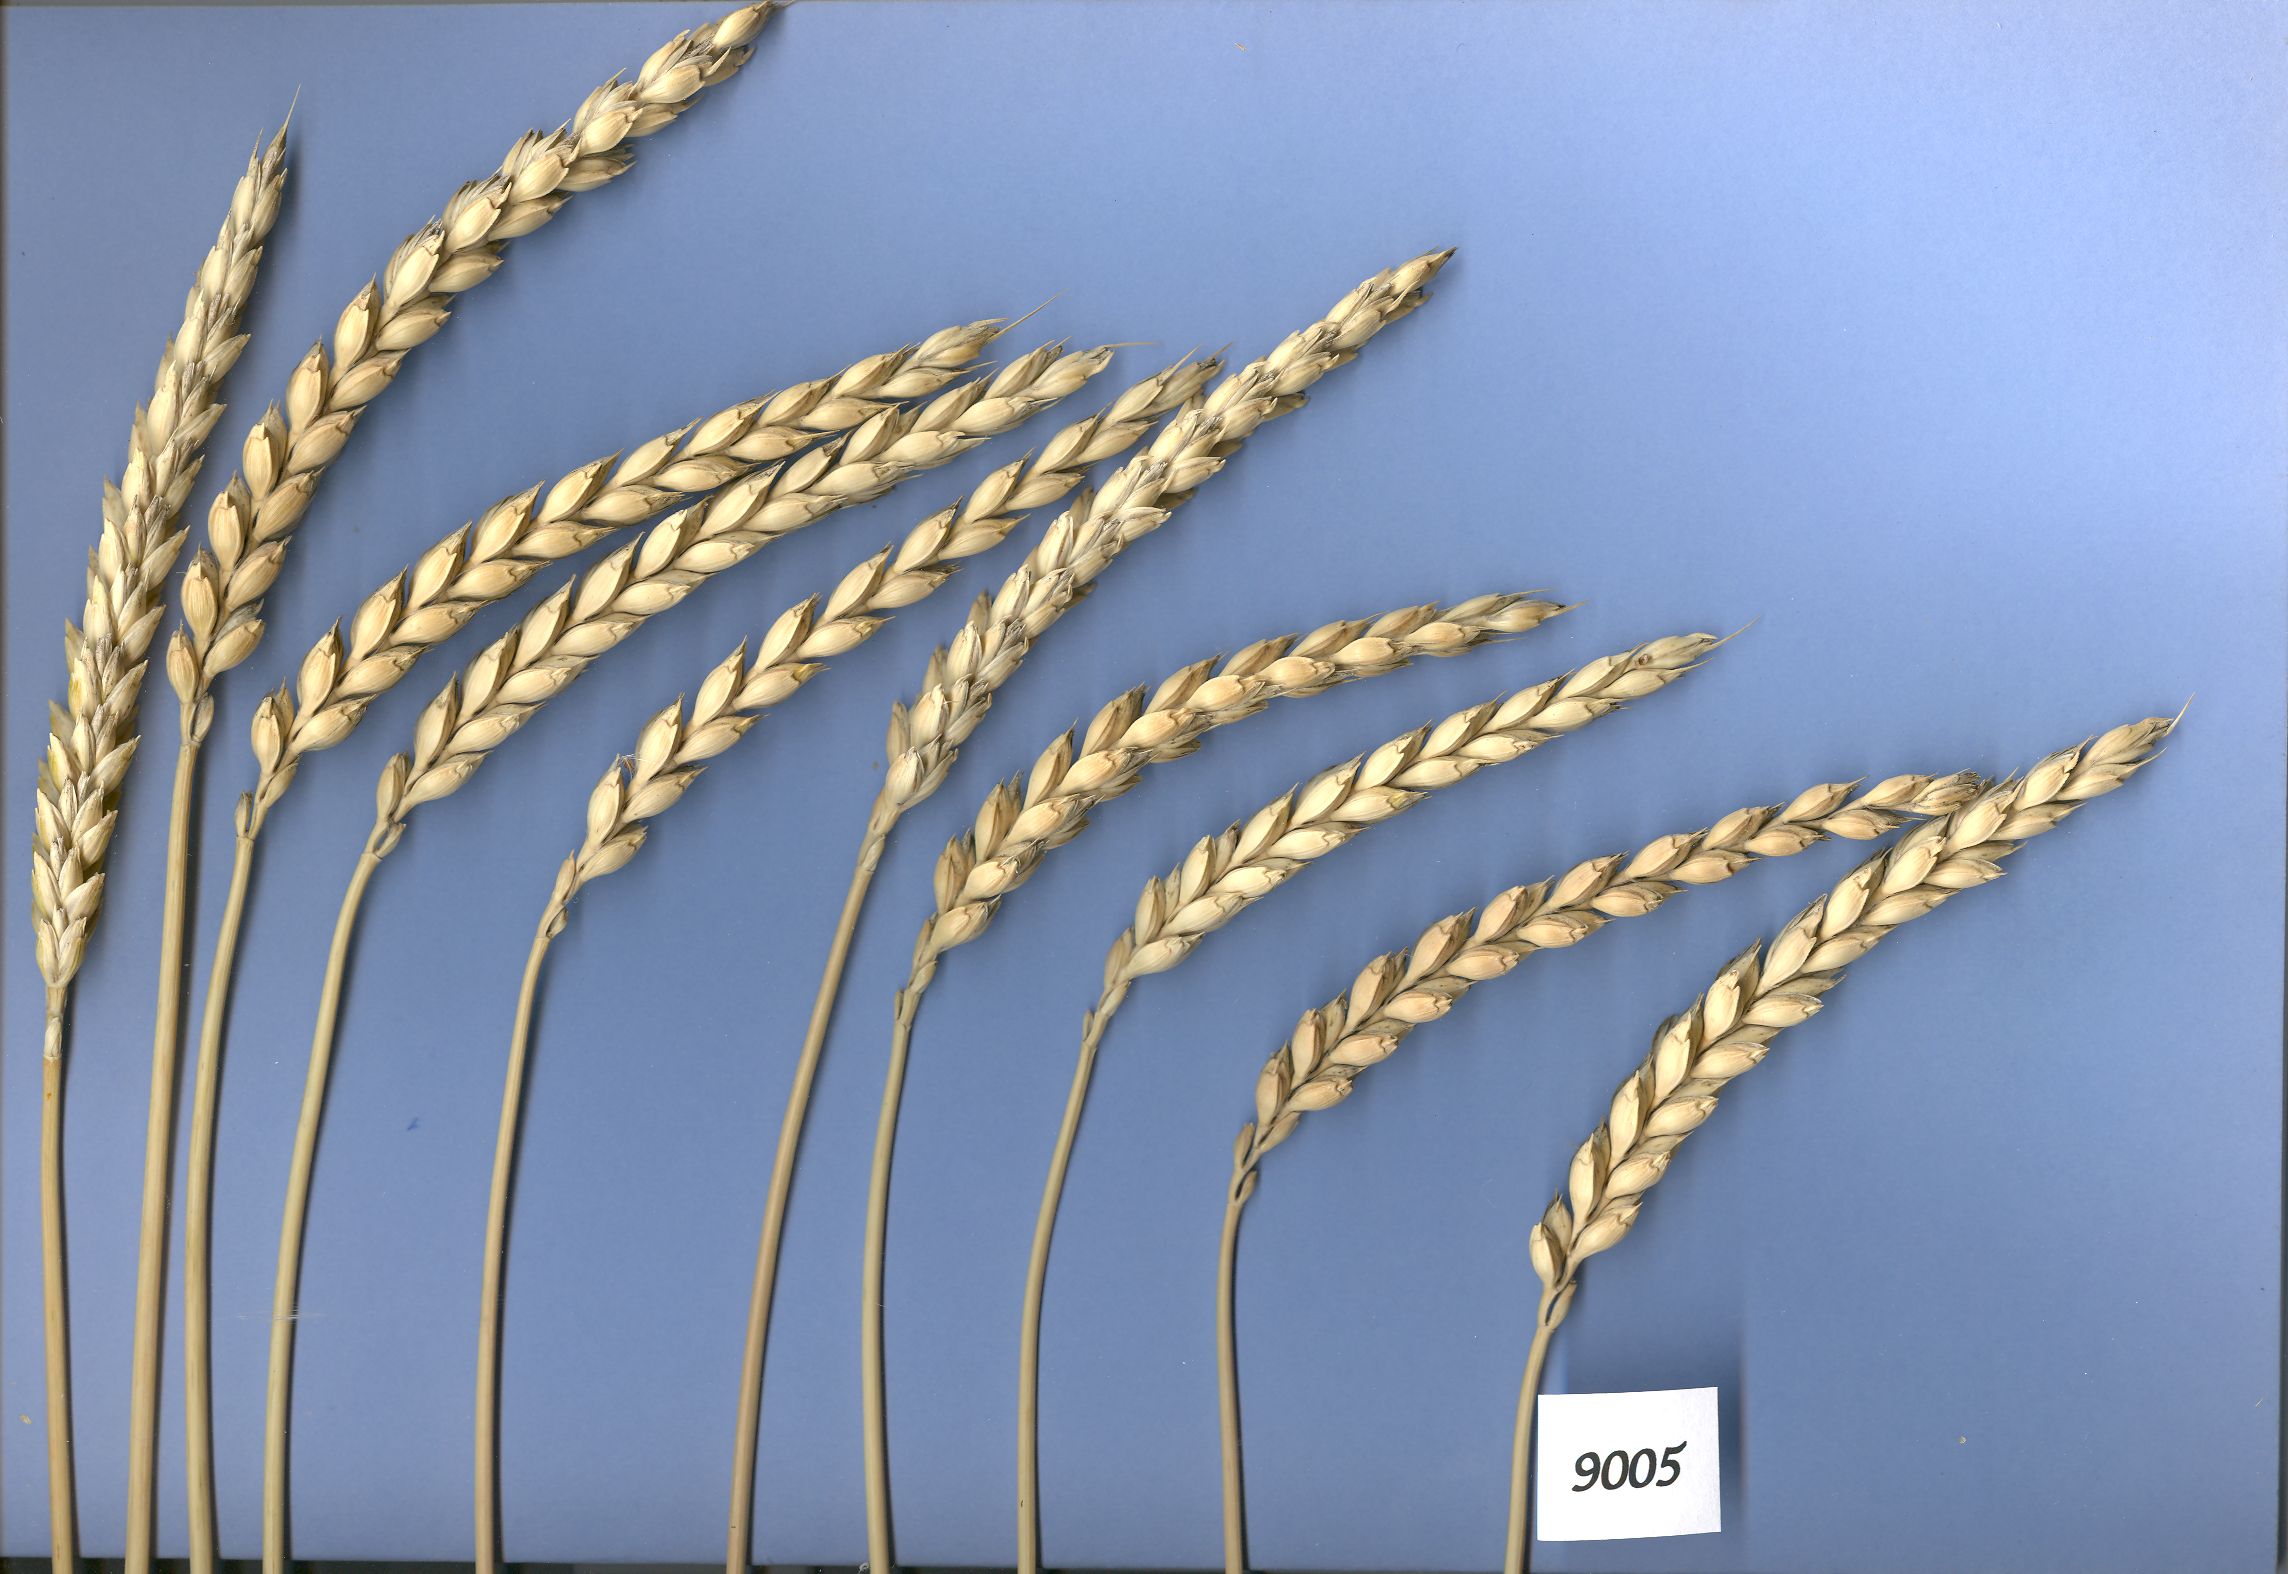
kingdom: Plantae
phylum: Tracheophyta
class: Liliopsida
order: Poales
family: Poaceae
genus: Triticum
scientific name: Triticum aestivum
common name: Common wheat
